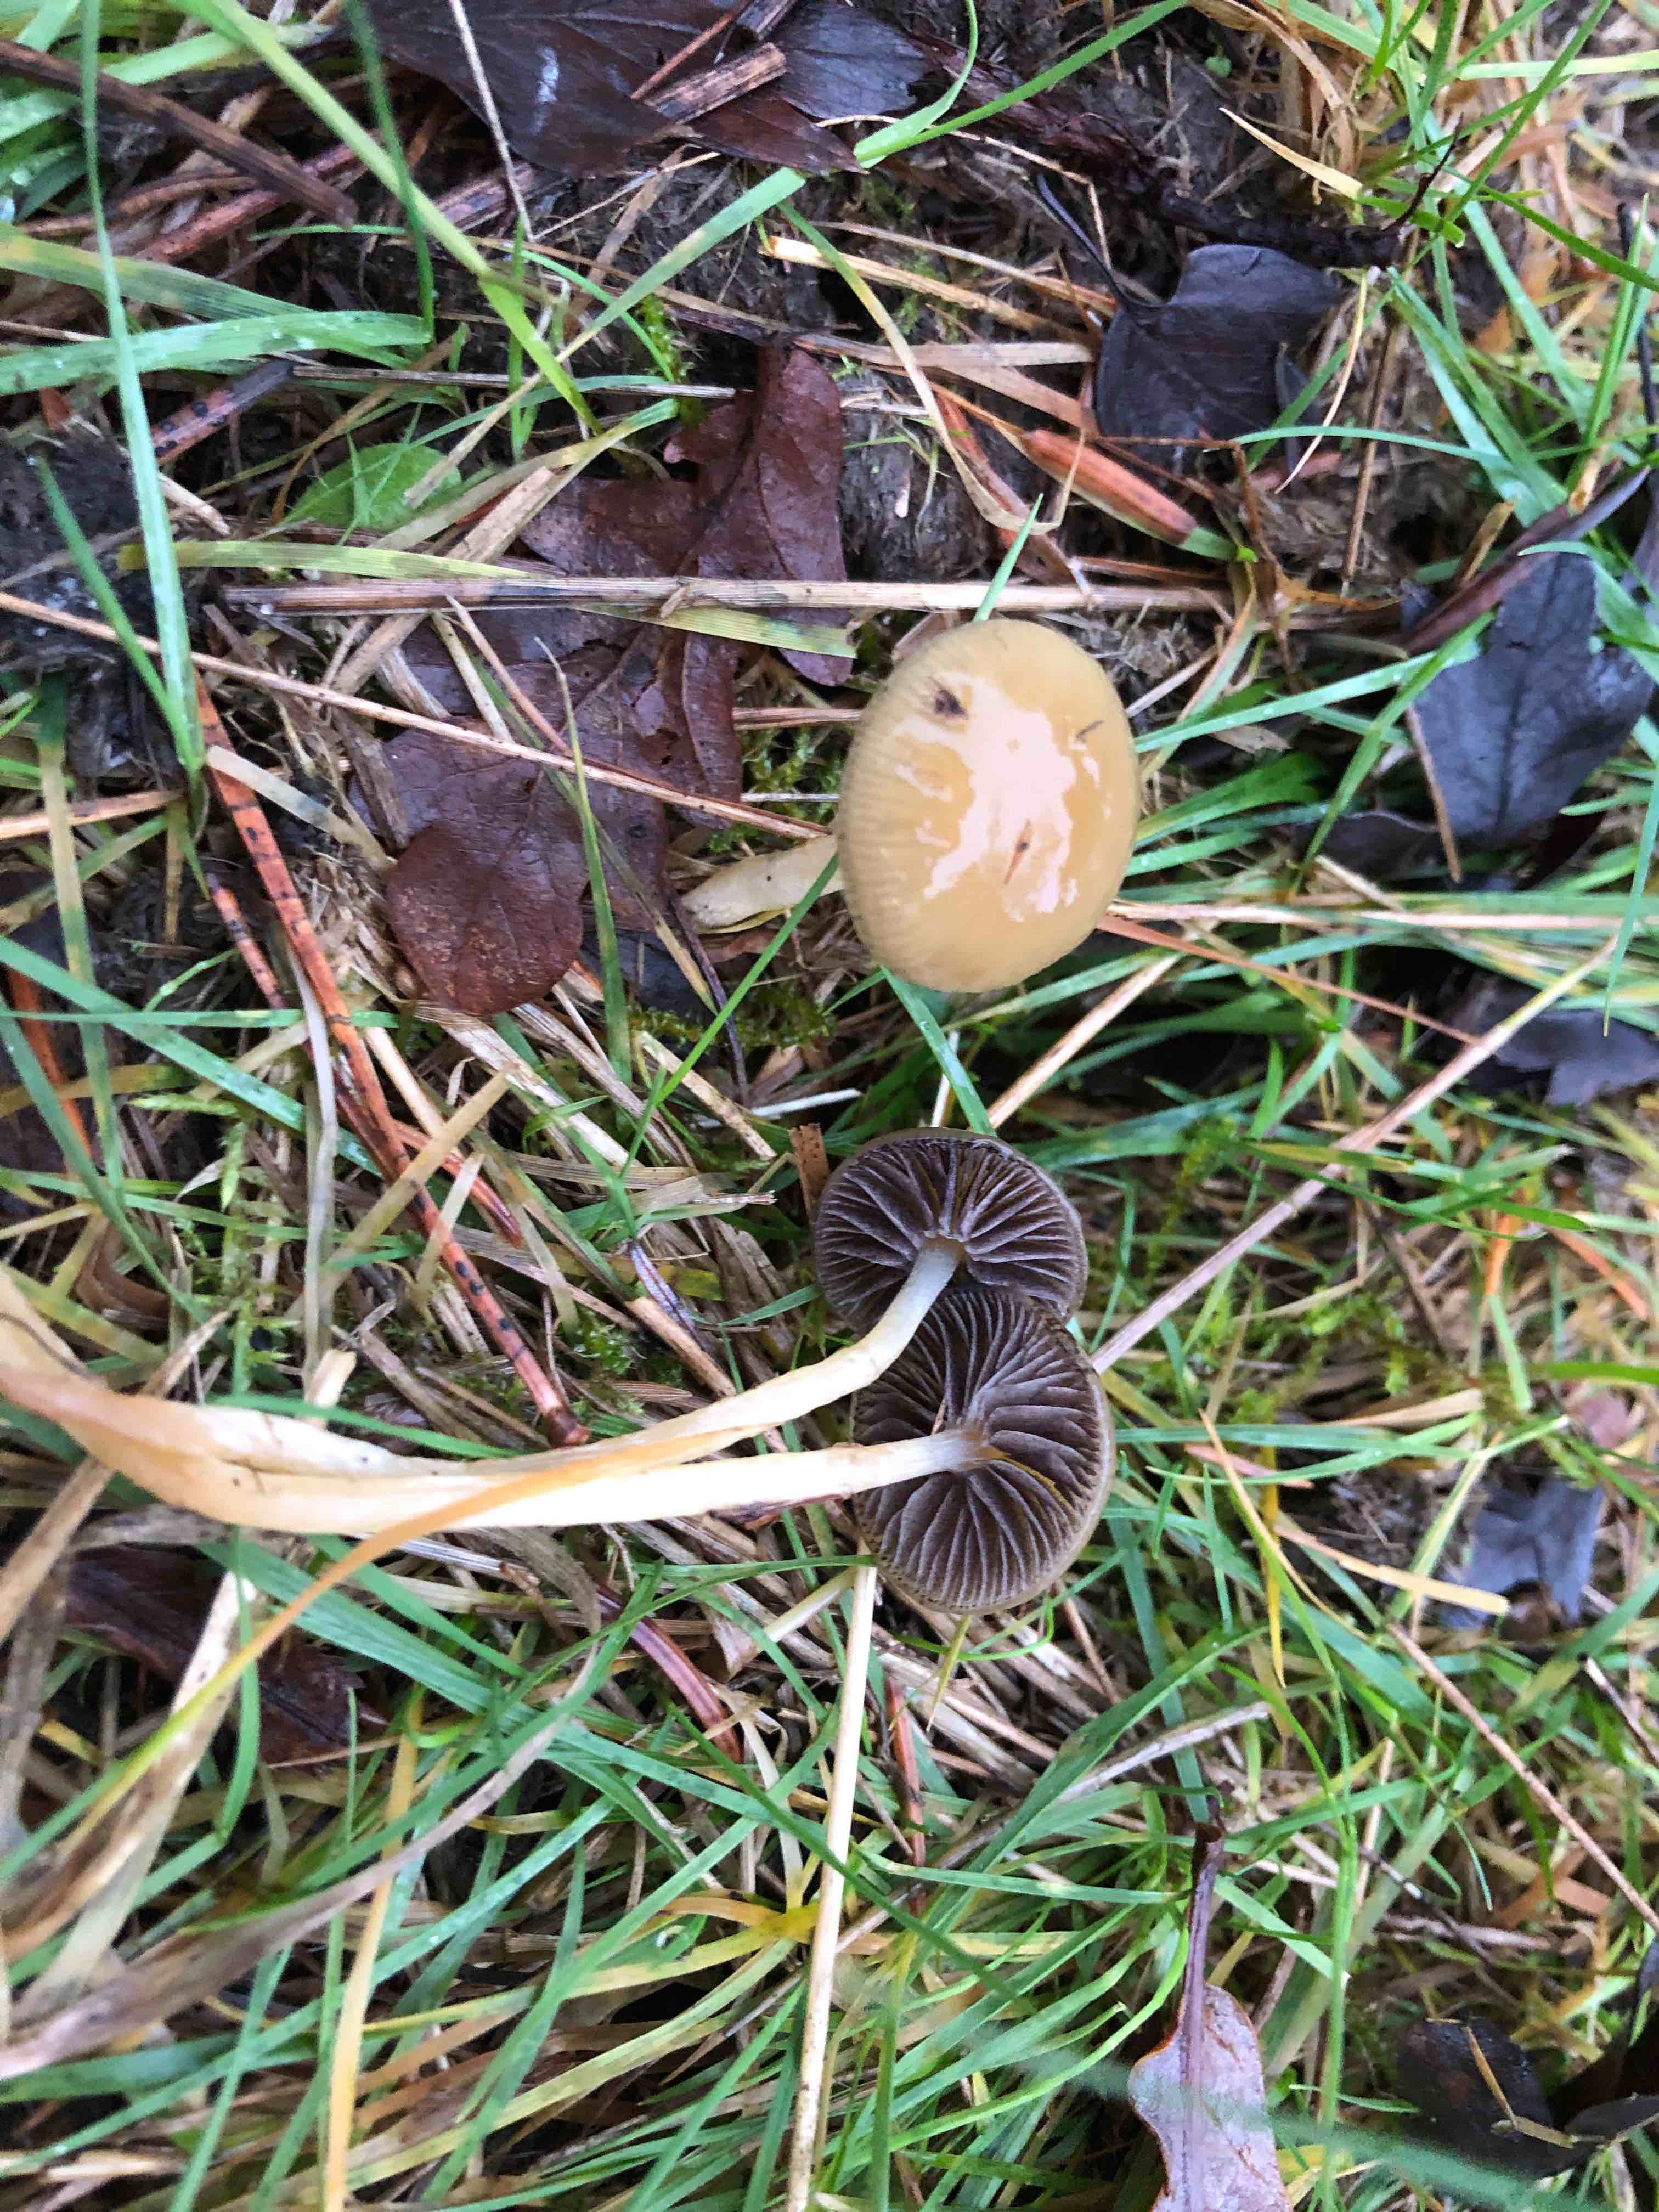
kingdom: Fungi
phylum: Basidiomycota
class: Agaricomycetes
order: Agaricales
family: Strophariaceae
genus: Protostropharia
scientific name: Protostropharia semiglobata
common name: halvkugleformet bredblad
